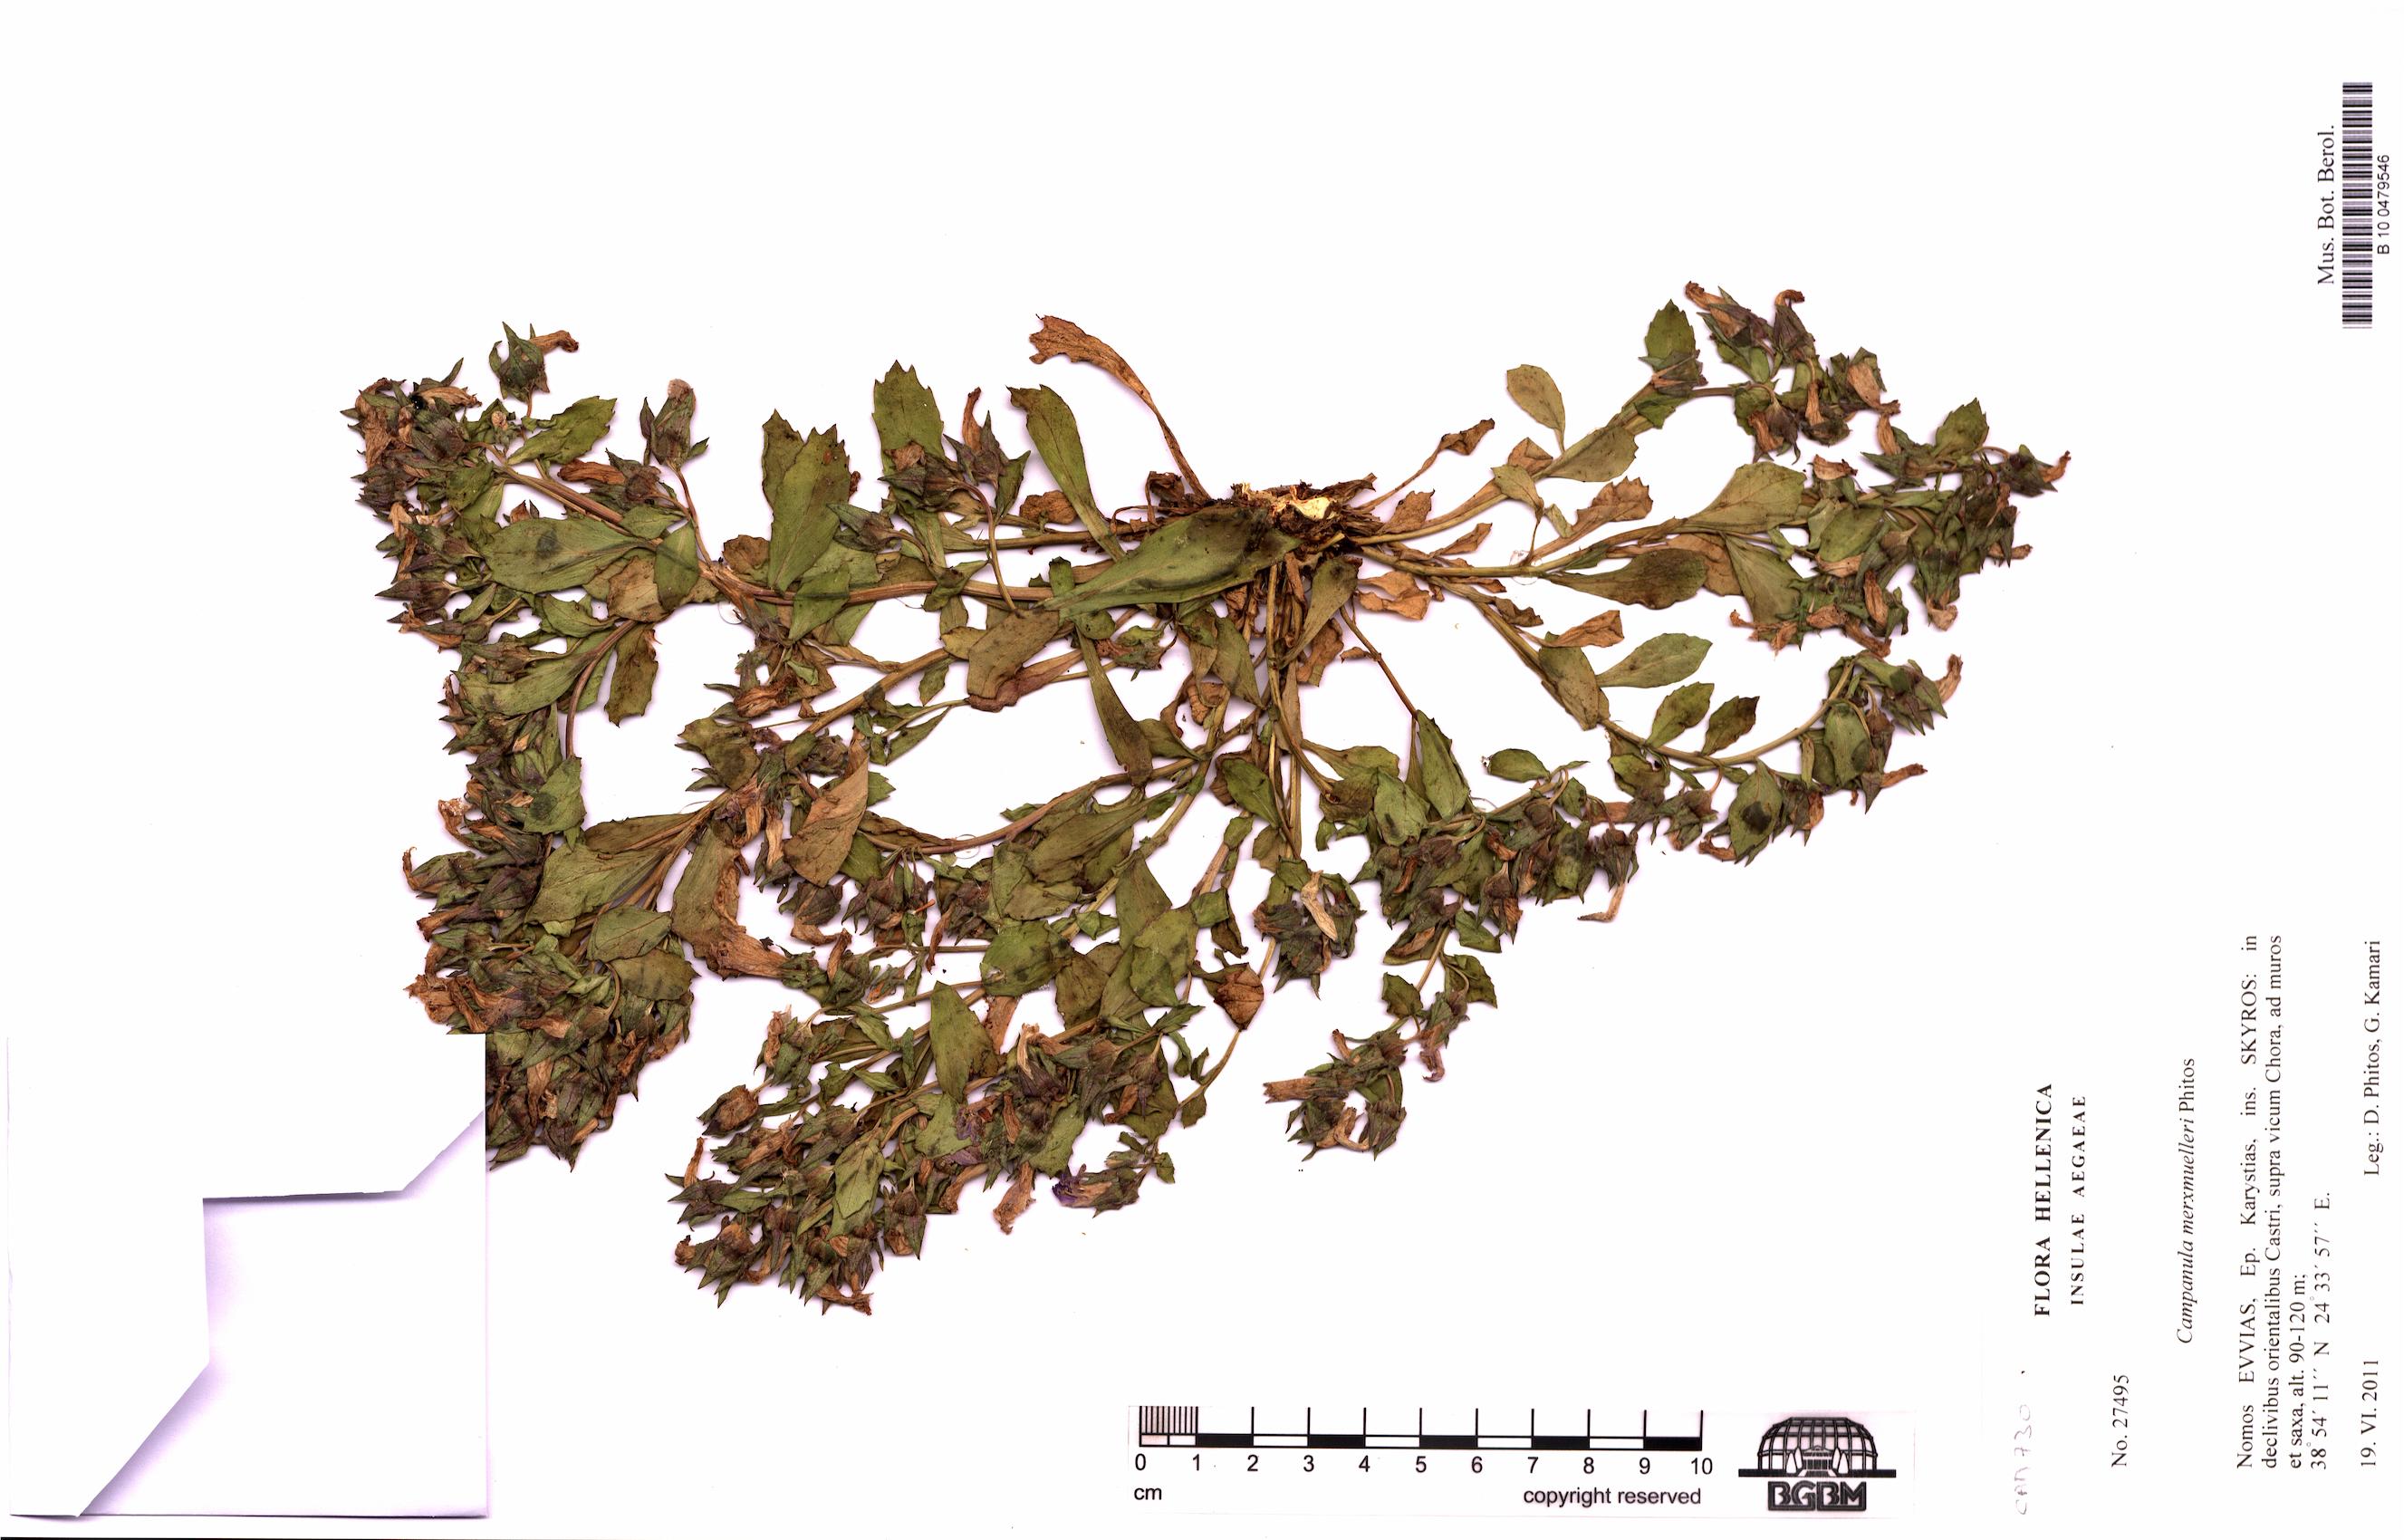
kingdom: Plantae
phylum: Tracheophyta
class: Magnoliopsida
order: Asterales
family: Campanulaceae
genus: Campanula
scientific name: Campanula merxmuelleri
